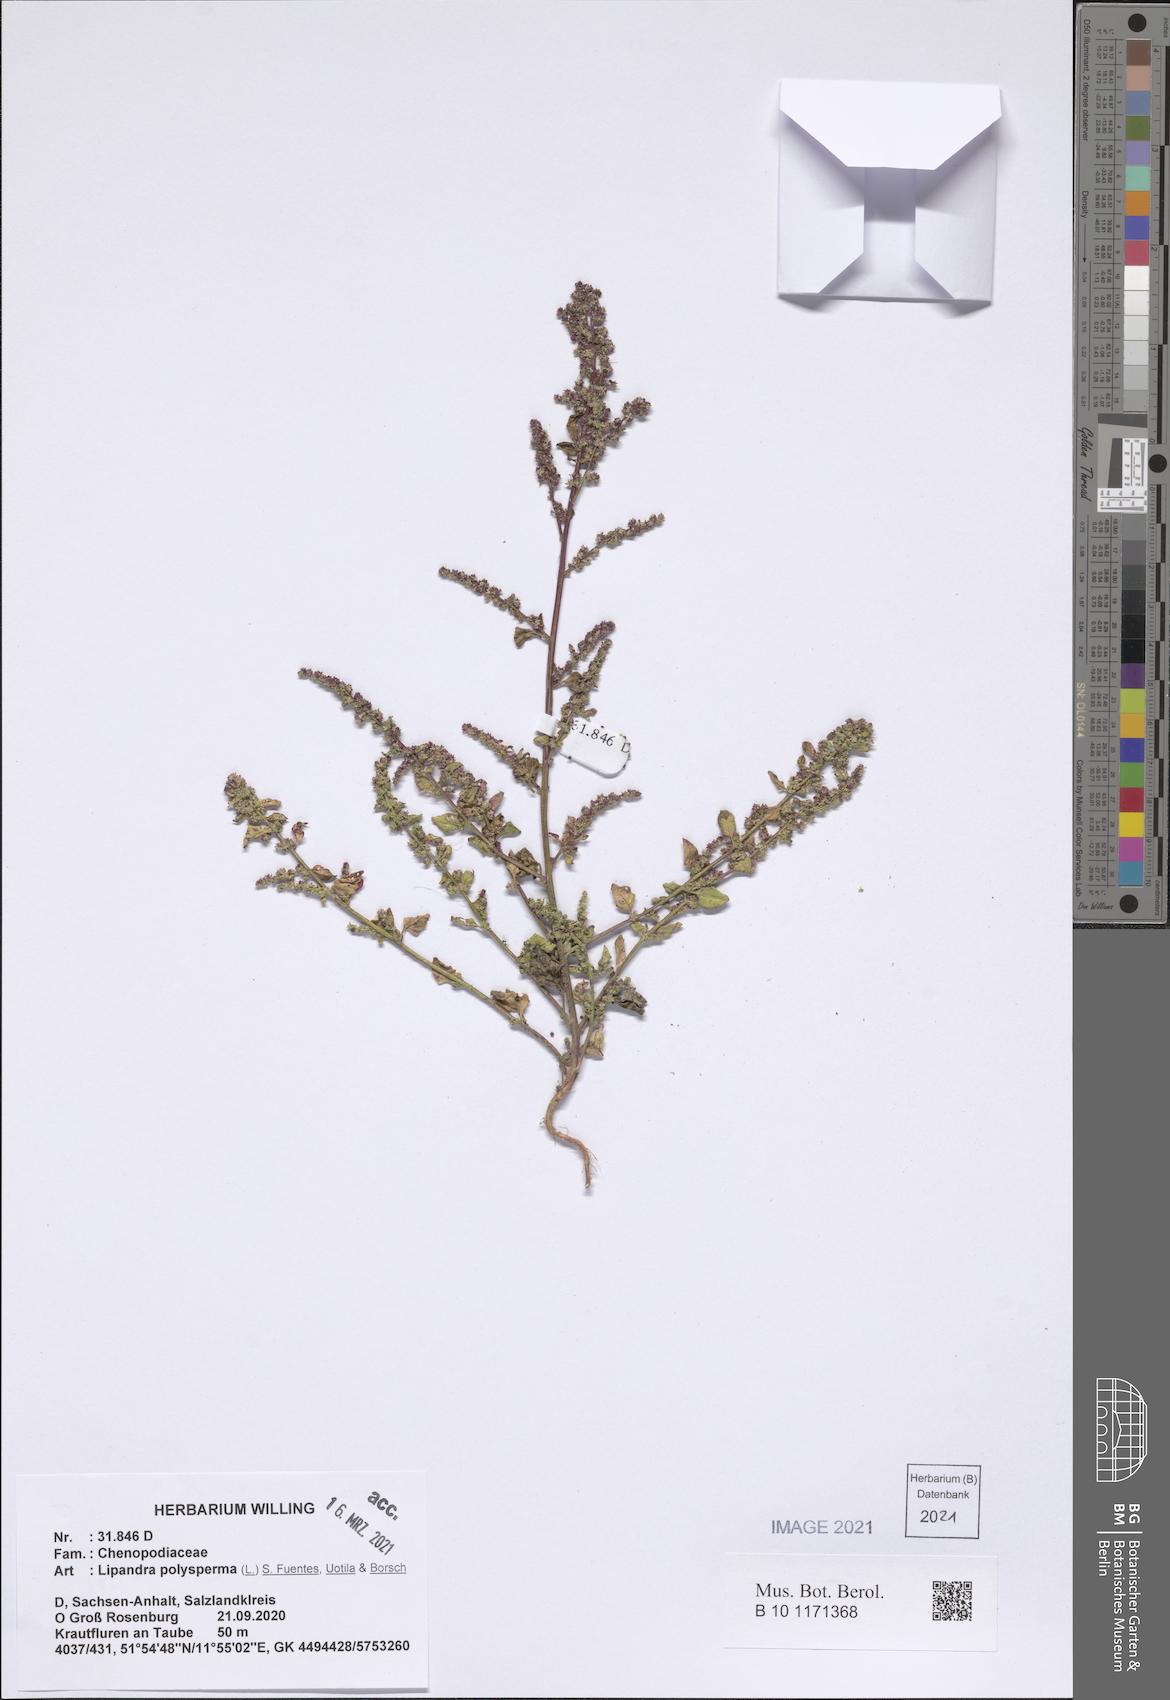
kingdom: Plantae
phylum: Tracheophyta
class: Magnoliopsida
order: Caryophyllales
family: Amaranthaceae
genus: Lipandra
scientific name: Lipandra polysperma
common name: Many-seed goosefoot
